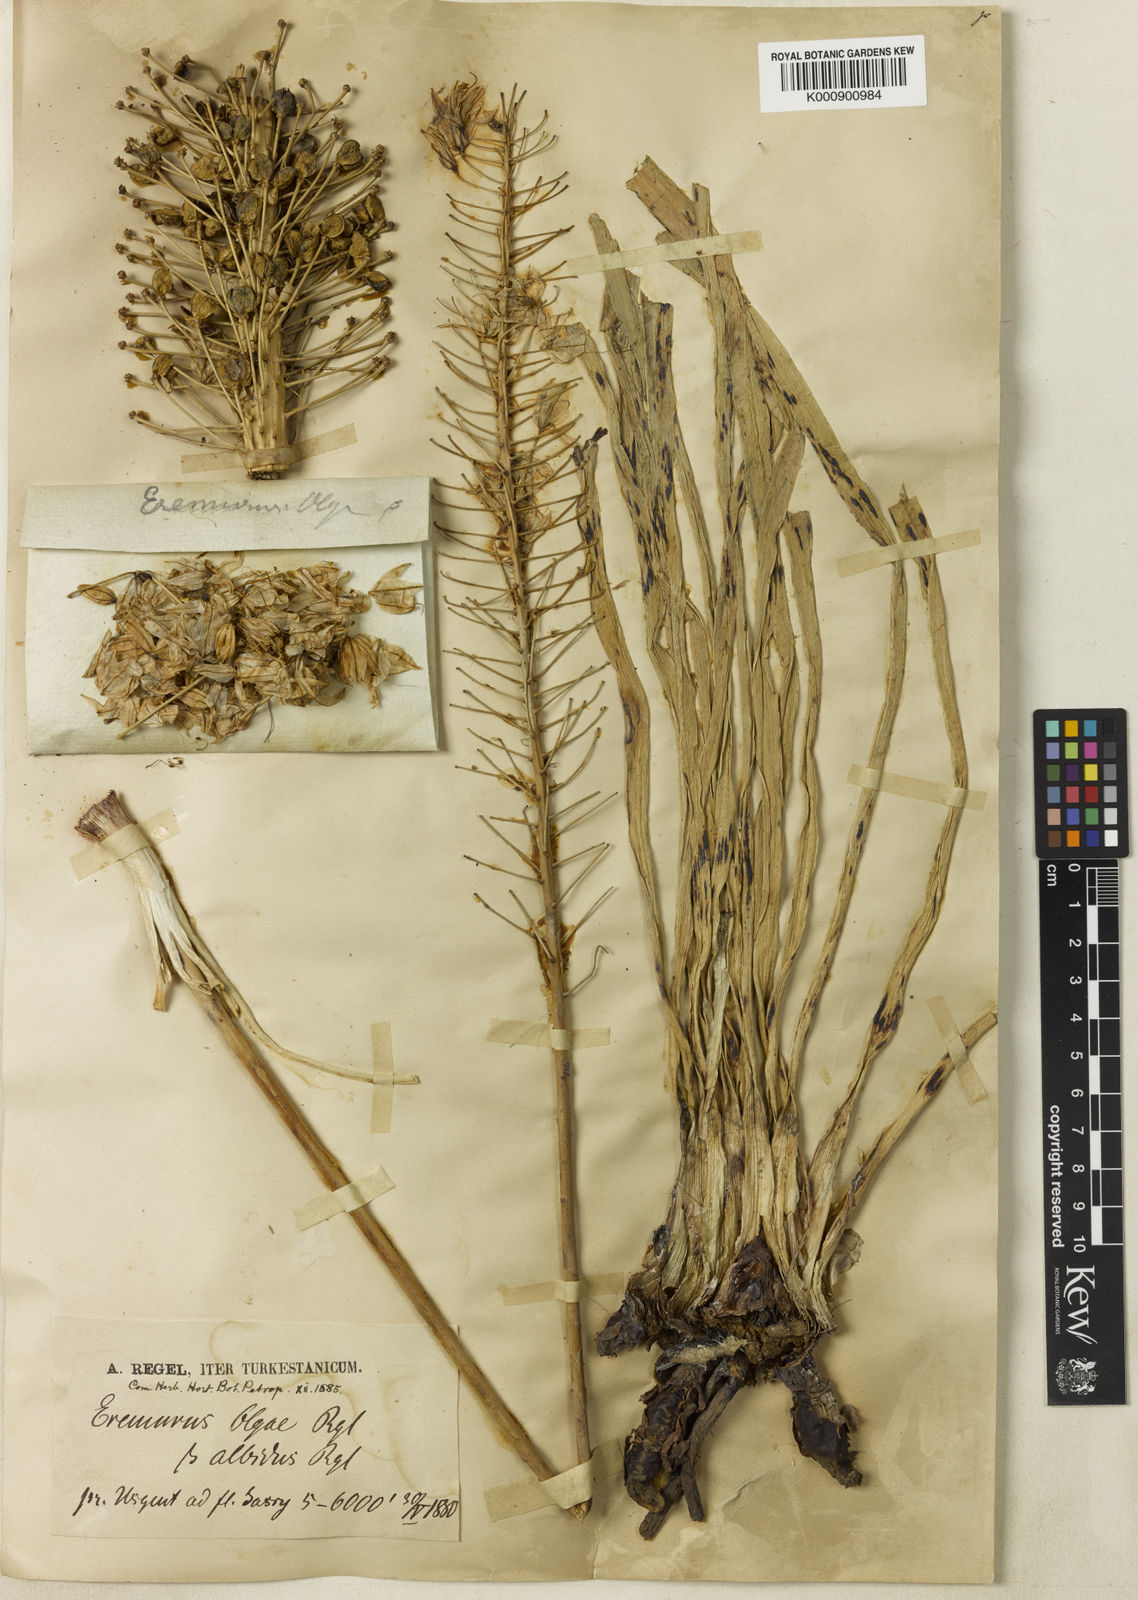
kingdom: Plantae
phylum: Tracheophyta
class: Liliopsida
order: Asparagales
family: Asphodelaceae
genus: Eremurus
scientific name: Eremurus olgae
